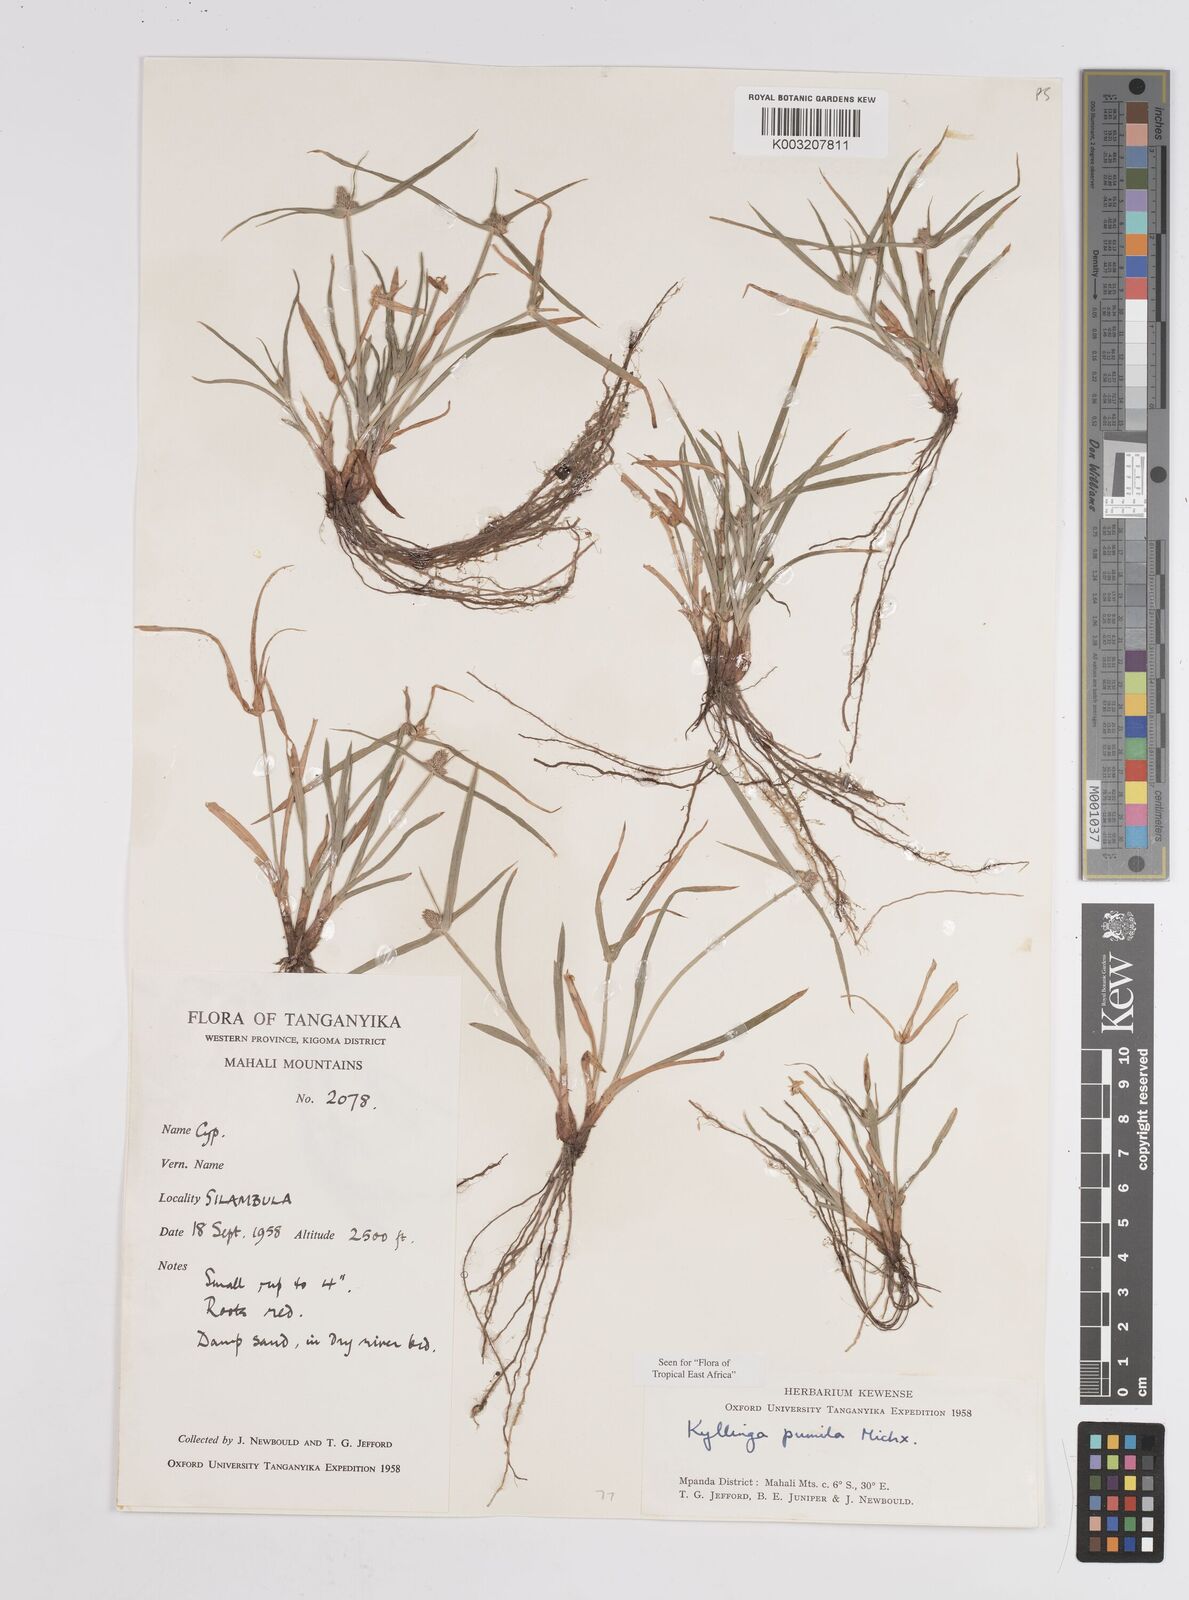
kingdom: Plantae
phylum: Tracheophyta
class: Liliopsida
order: Poales
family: Cyperaceae
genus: Cyperus
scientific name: Cyperus hortensis
